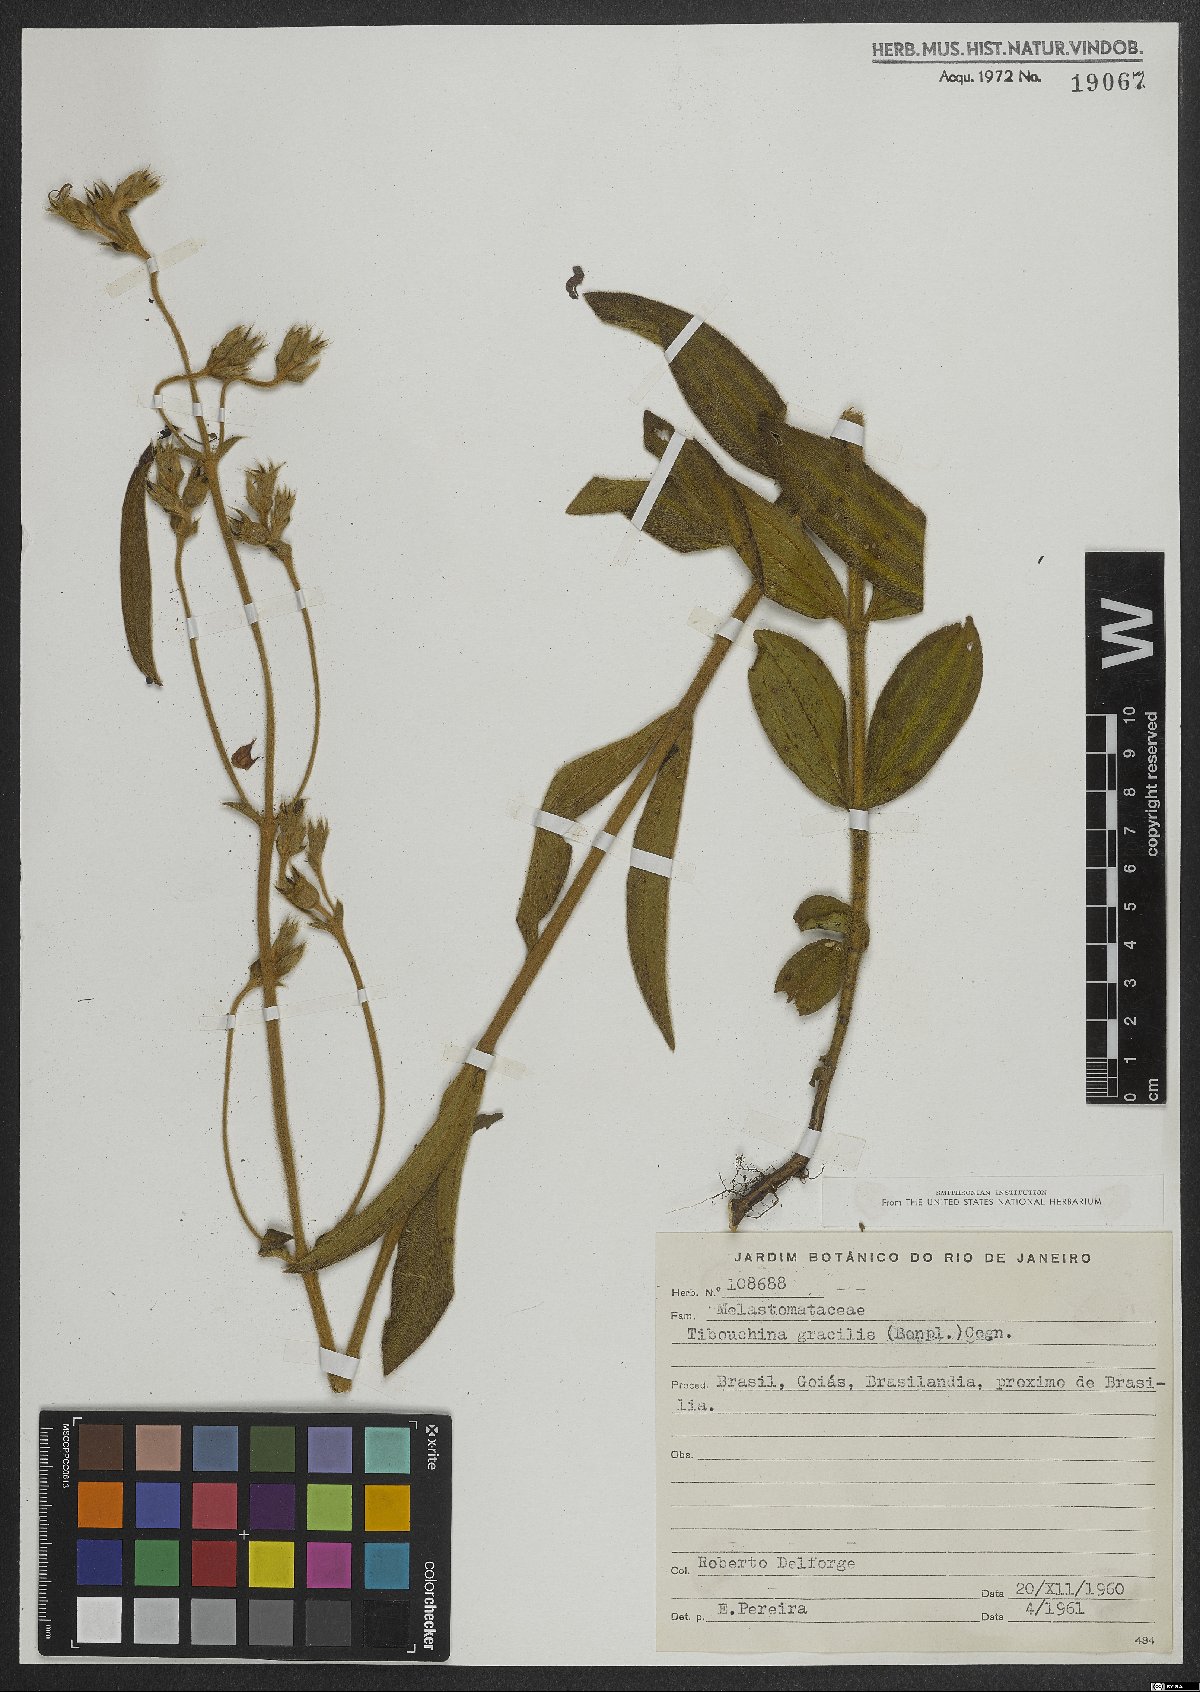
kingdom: Plantae
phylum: Tracheophyta
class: Magnoliopsida
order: Myrtales
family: Melastomataceae
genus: Chaetogastra
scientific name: Chaetogastra gracilis
